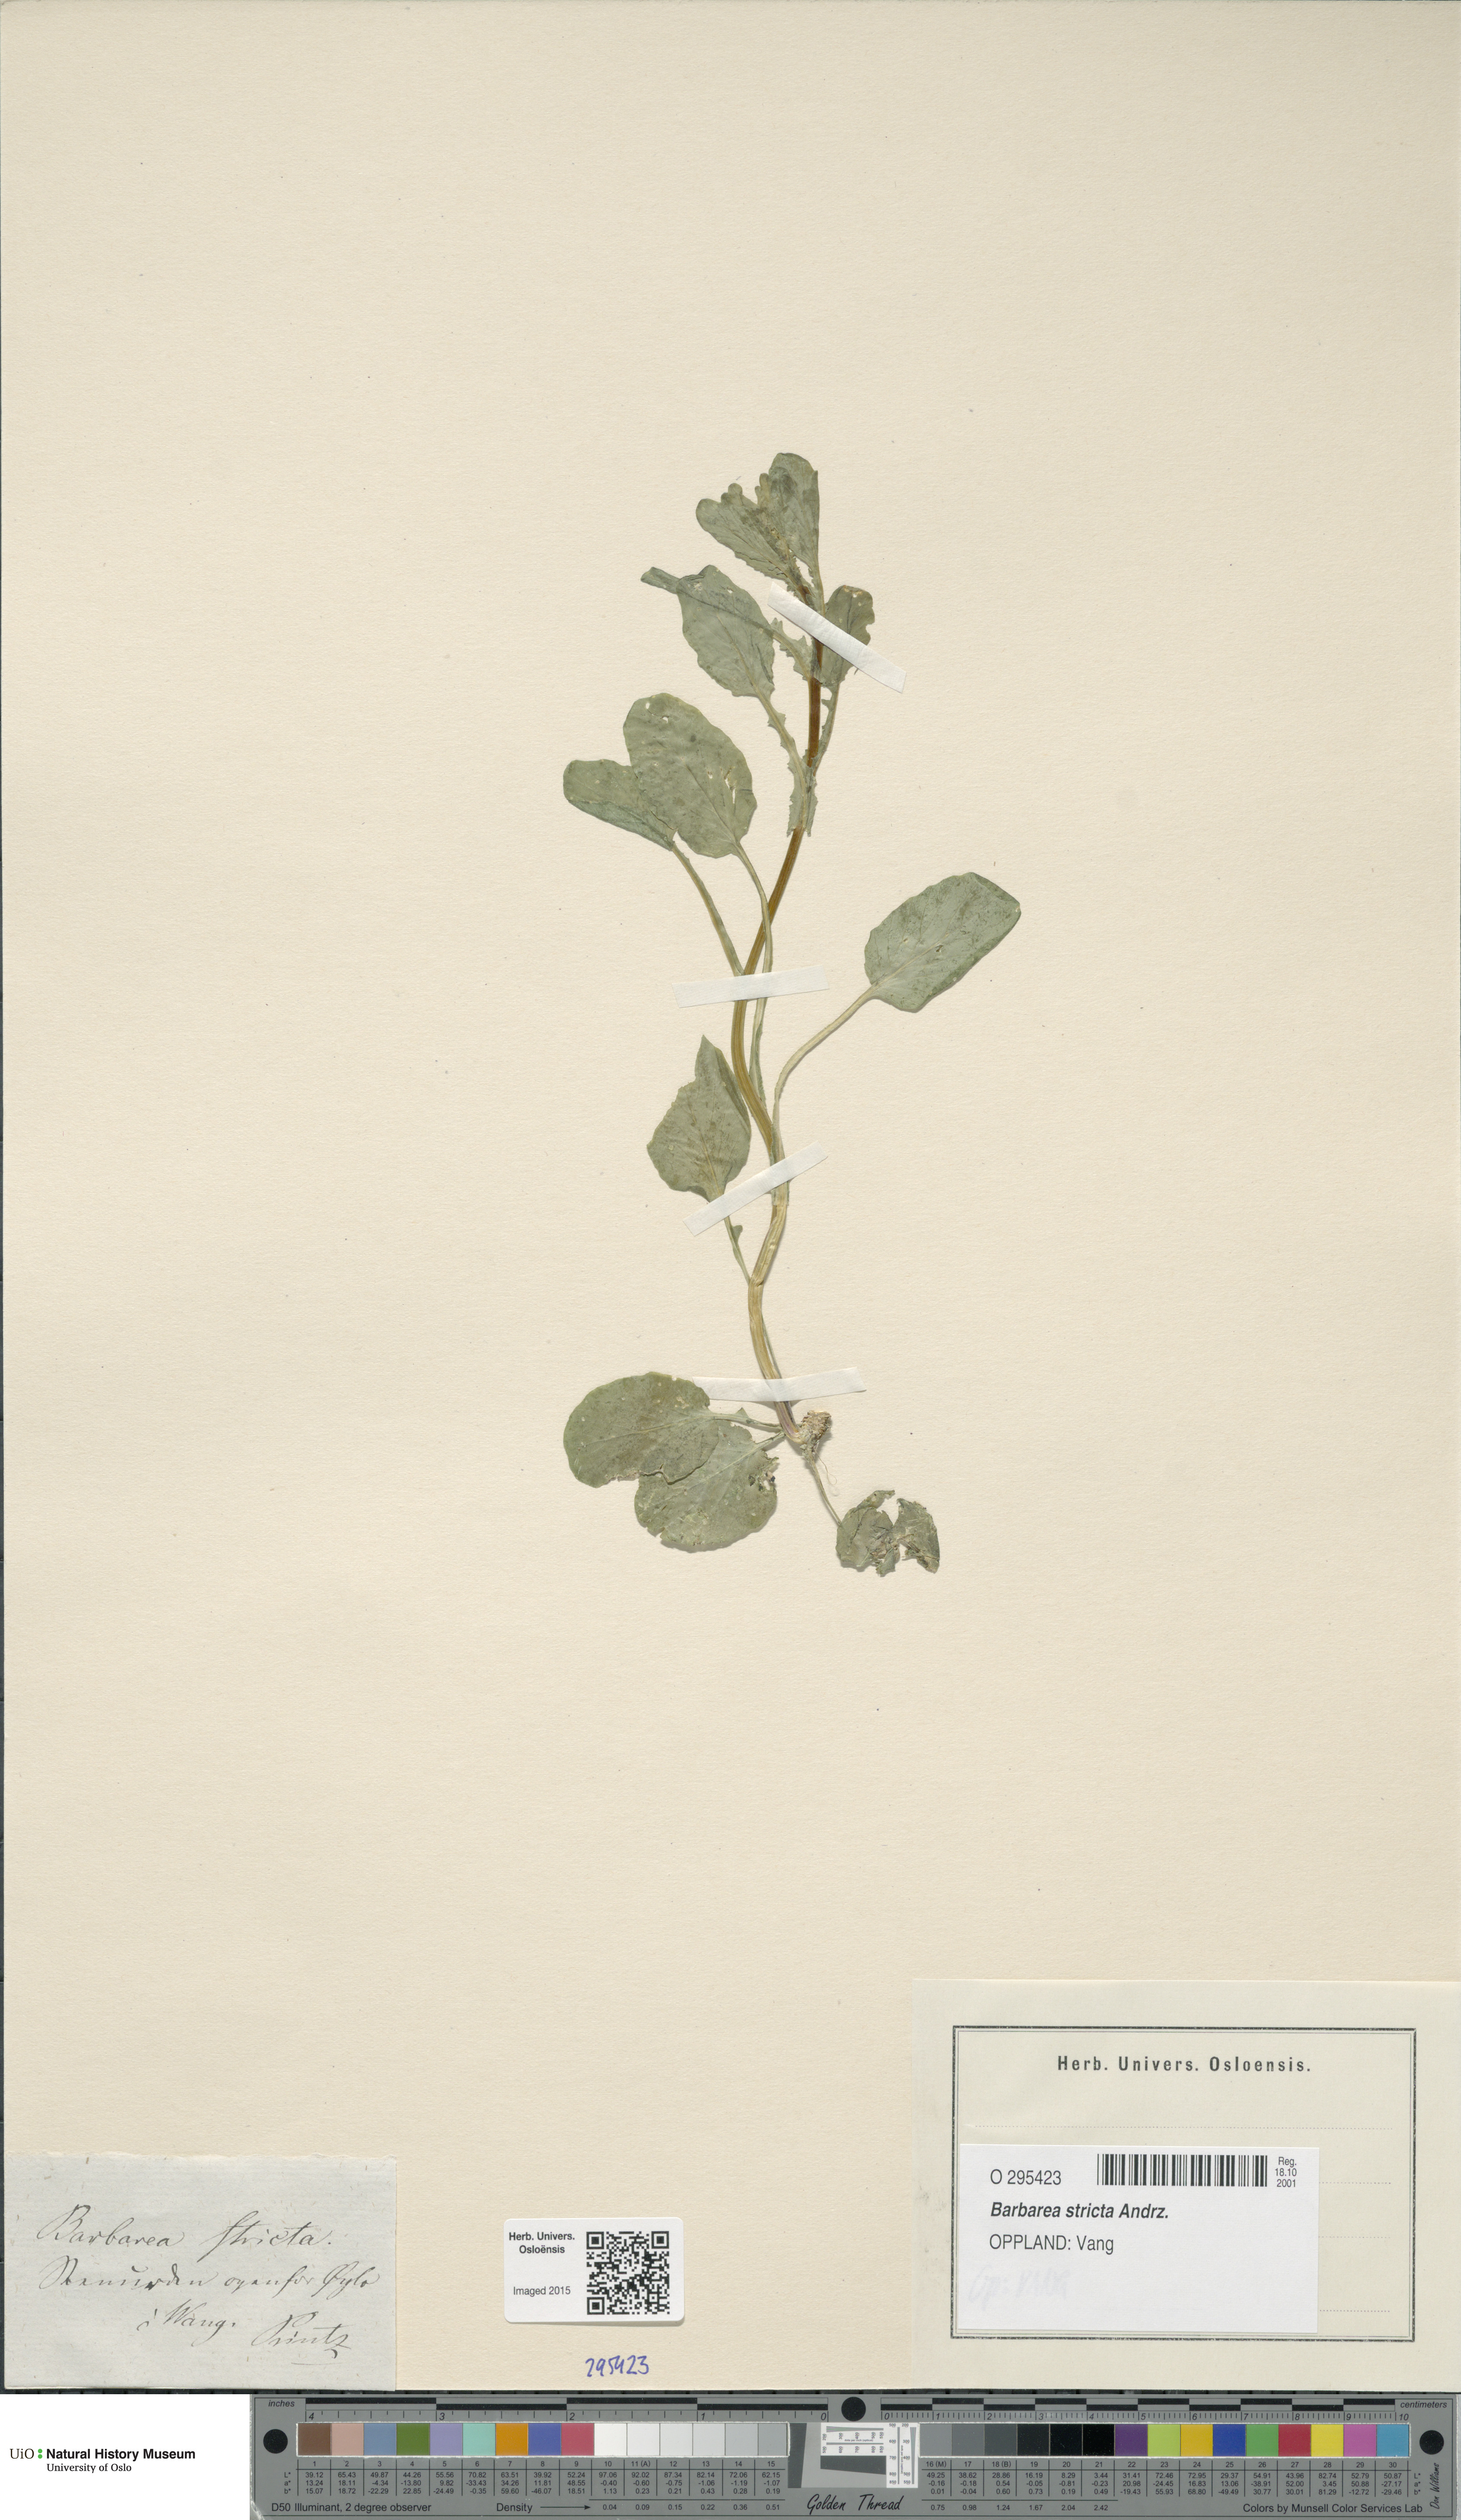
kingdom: Plantae
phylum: Tracheophyta
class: Magnoliopsida
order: Brassicales
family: Brassicaceae
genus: Barbarea
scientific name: Barbarea stricta
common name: Small-flowered winter-cress
